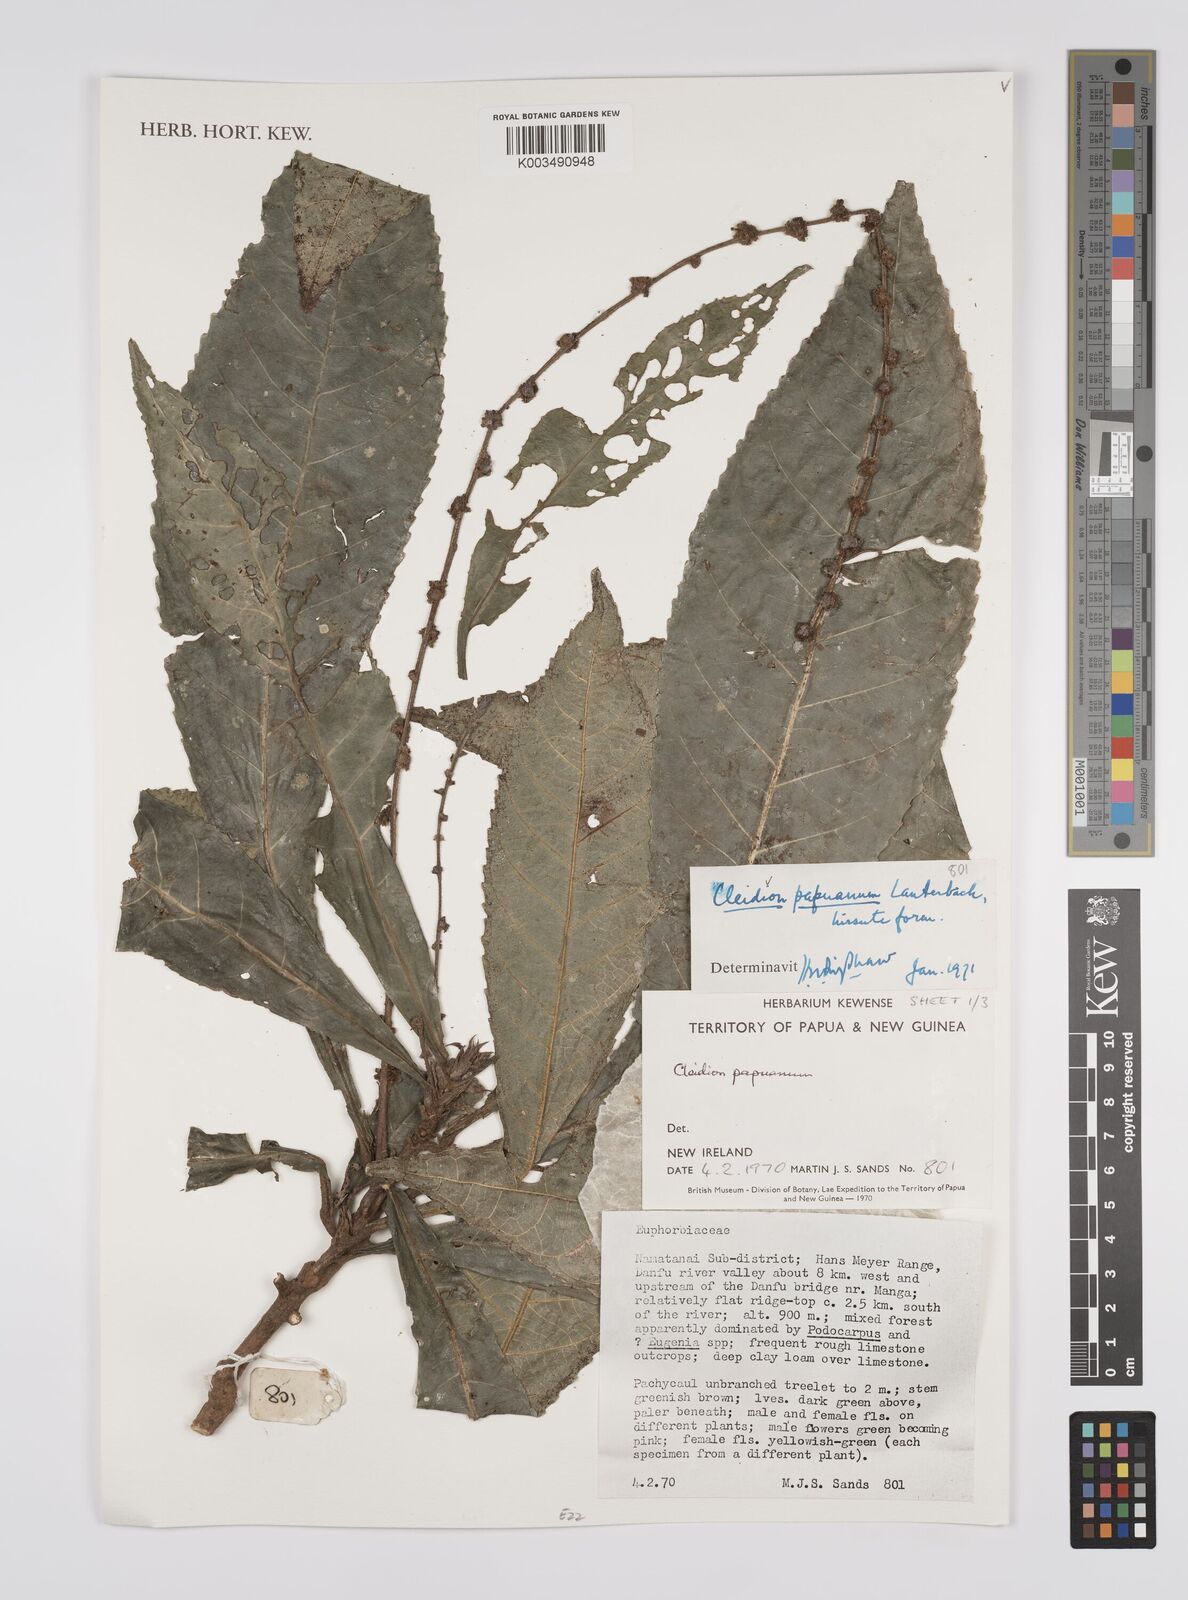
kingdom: Plantae
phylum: Tracheophyta
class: Magnoliopsida
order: Malpighiales
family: Euphorbiaceae
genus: Cleidion
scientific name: Cleidion papuanum
